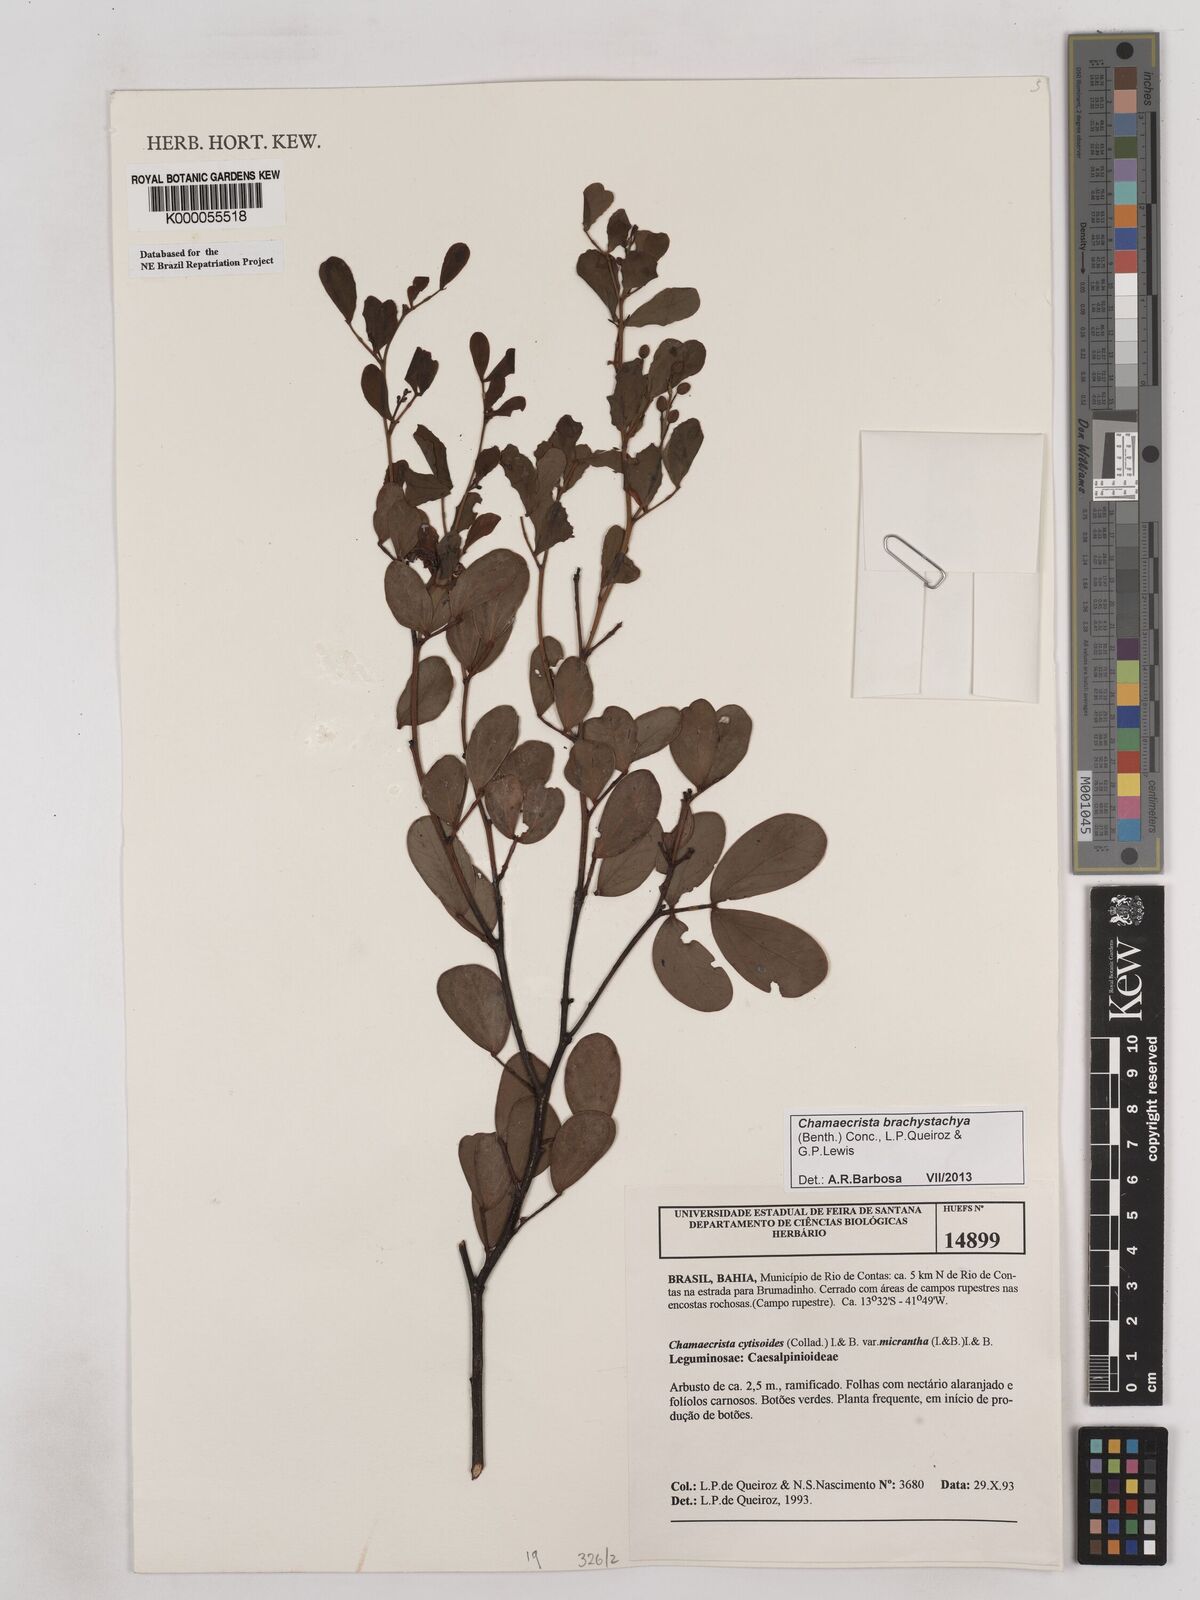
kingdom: Plantae
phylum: Tracheophyta
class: Magnoliopsida
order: Fabales
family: Fabaceae
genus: Chamaecrista
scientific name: Chamaecrista cytisoides
